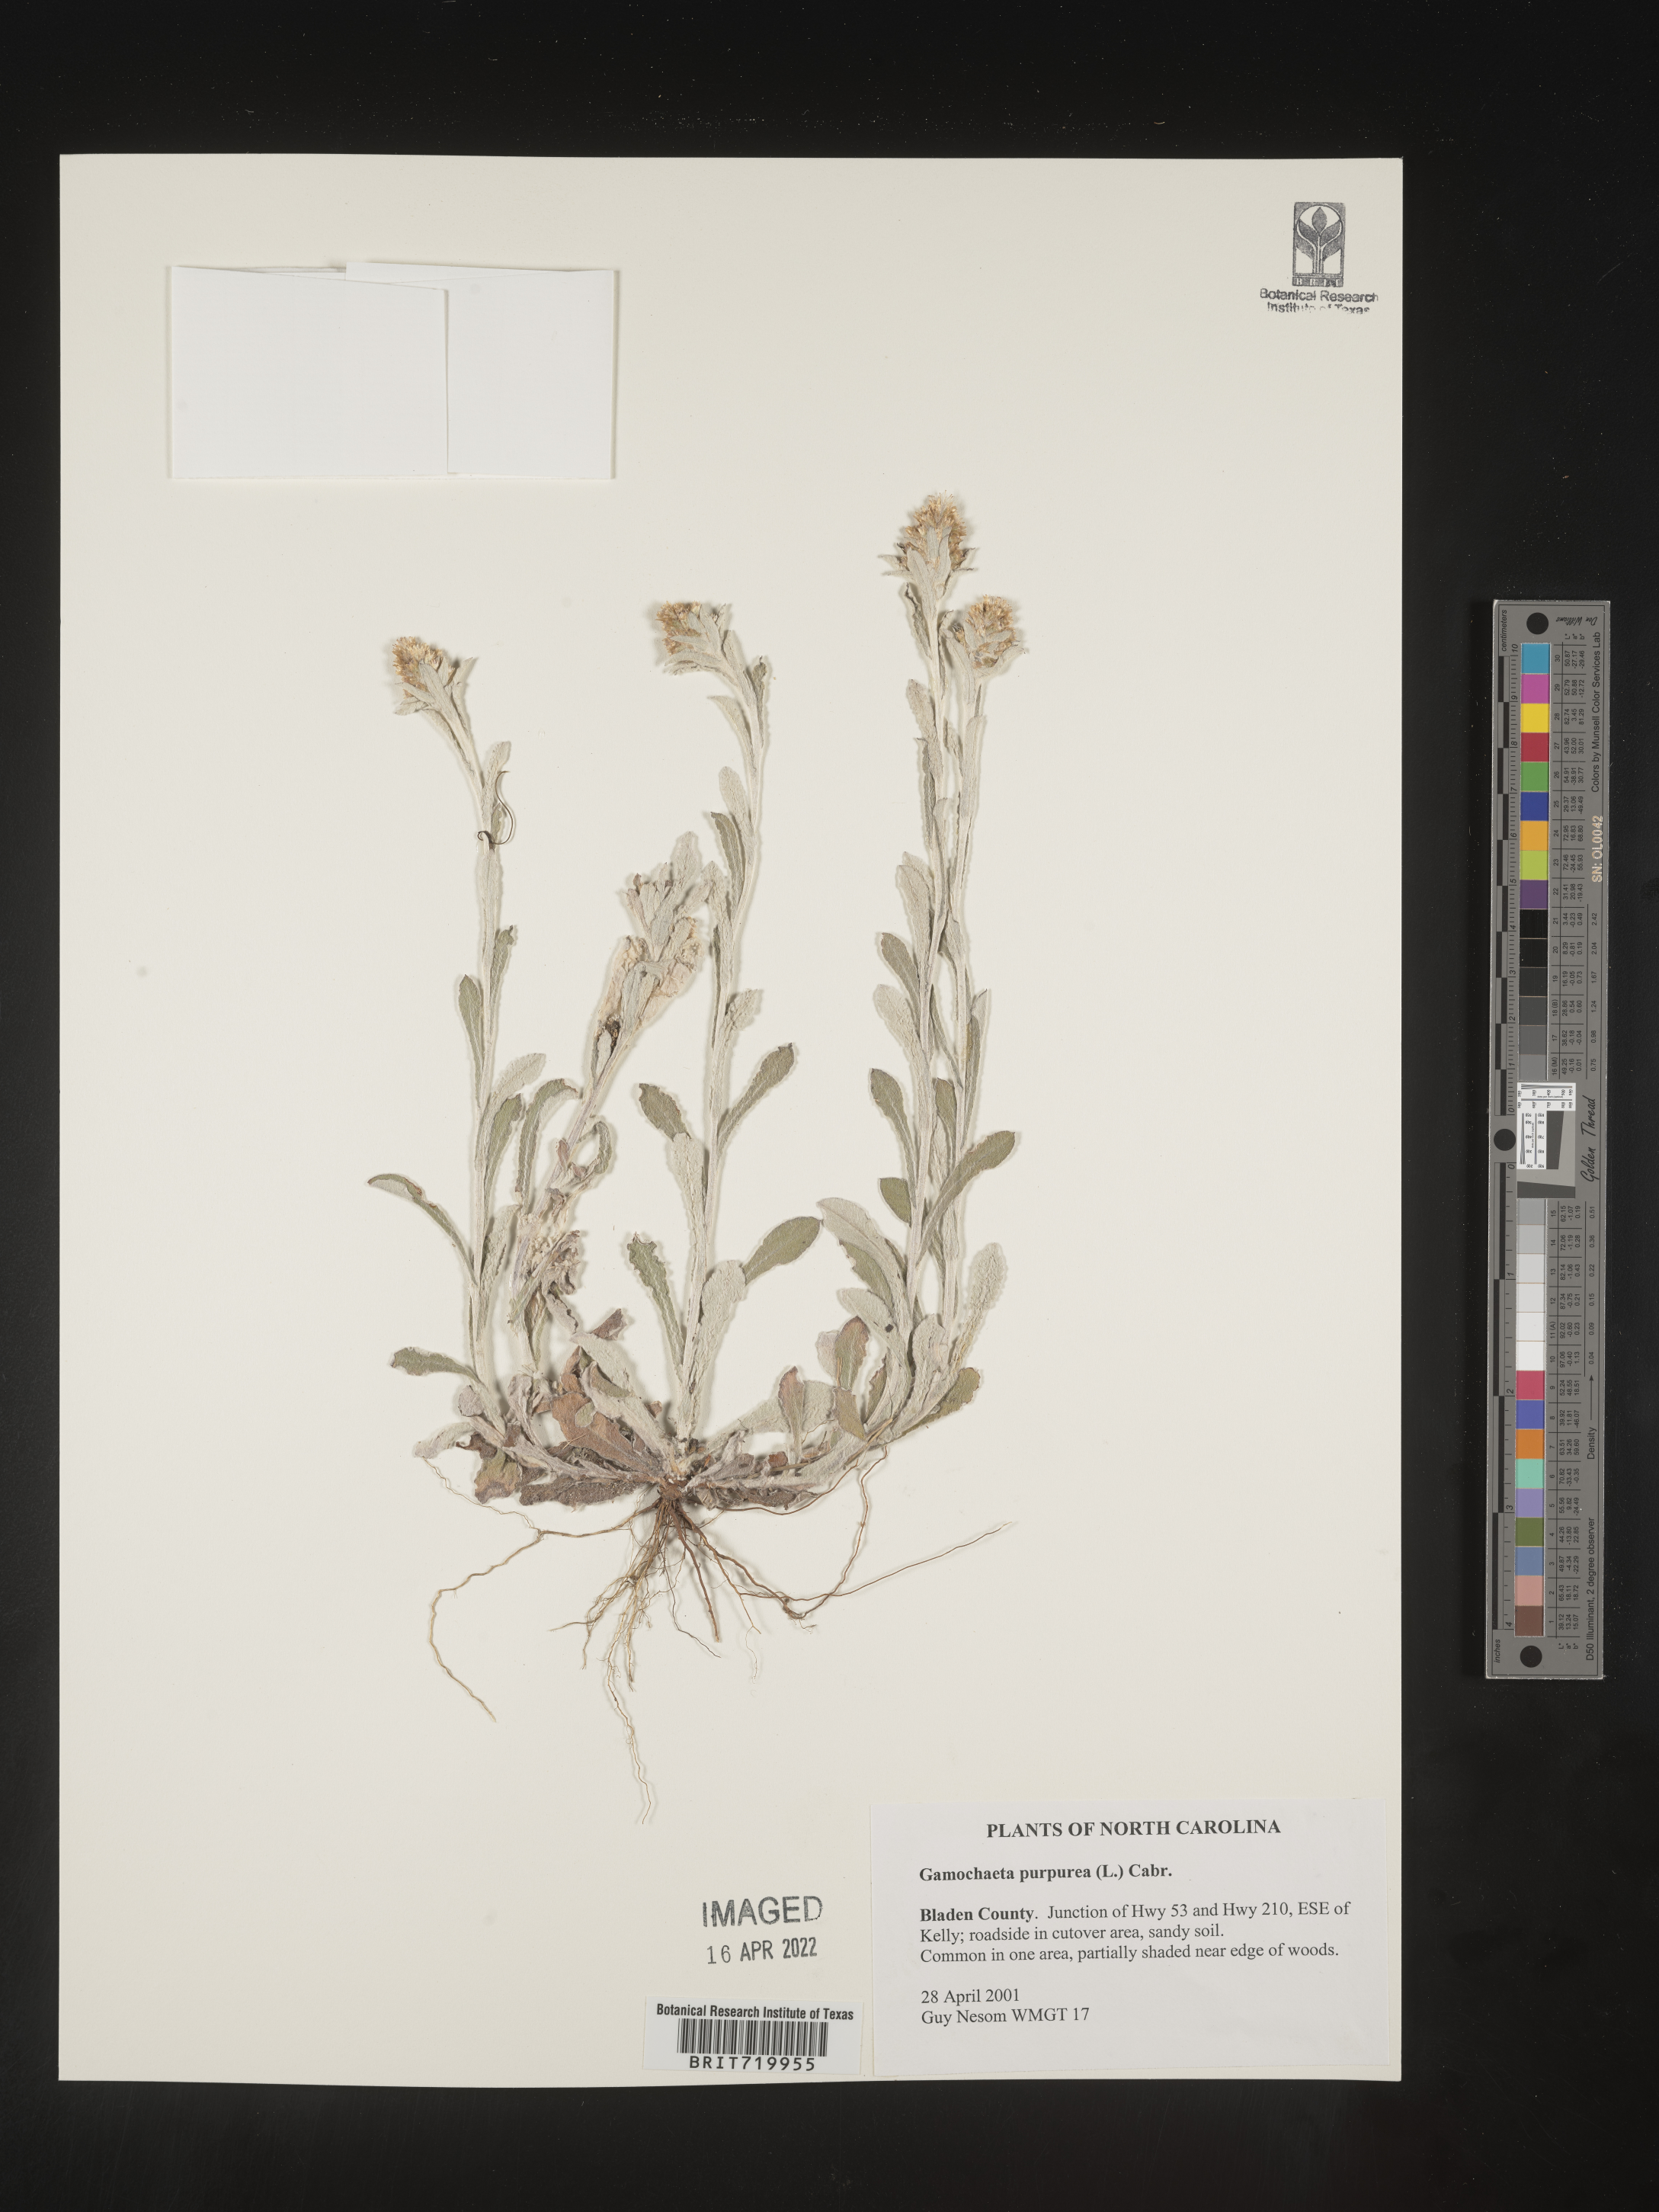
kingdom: Plantae
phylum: Tracheophyta
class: Magnoliopsida
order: Asterales
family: Asteraceae
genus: Gamochaeta
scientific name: Gamochaeta purpurea
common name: Purple cudweed
